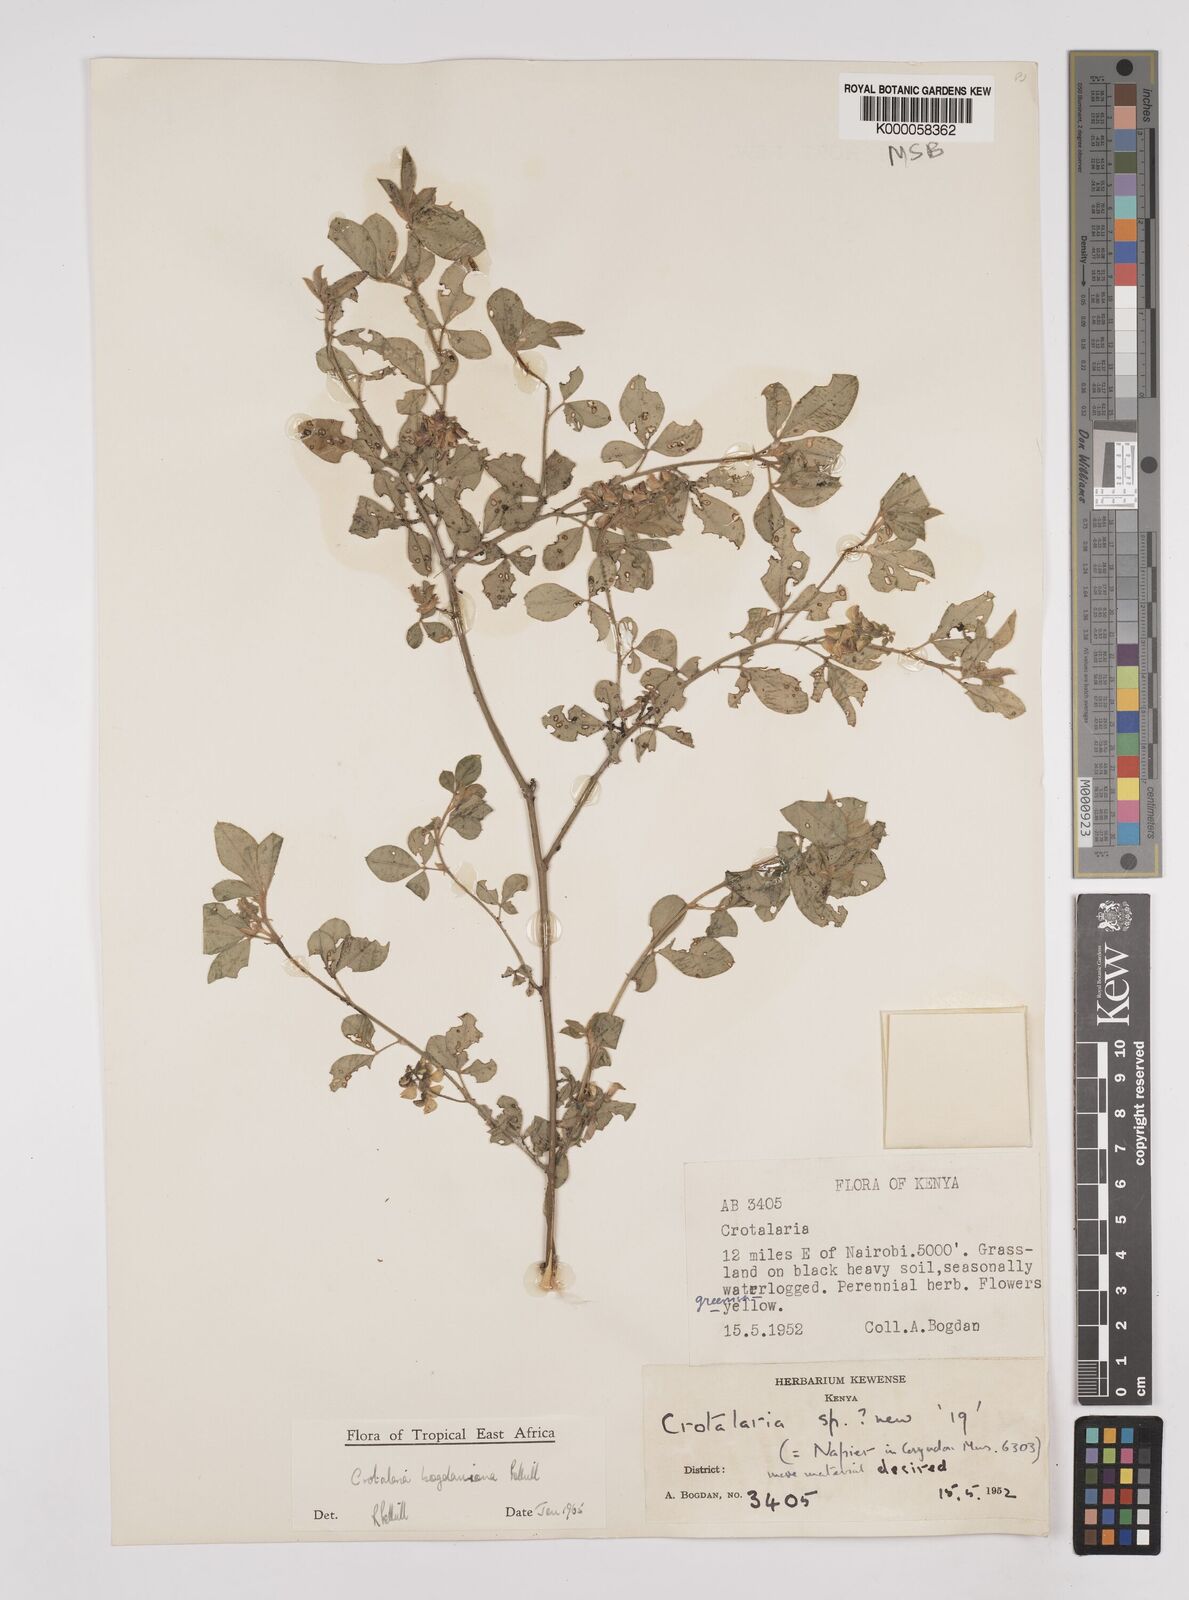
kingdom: Plantae
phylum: Tracheophyta
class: Magnoliopsida
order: Fabales
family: Fabaceae
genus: Crotalaria
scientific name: Crotalaria bogdaniana
